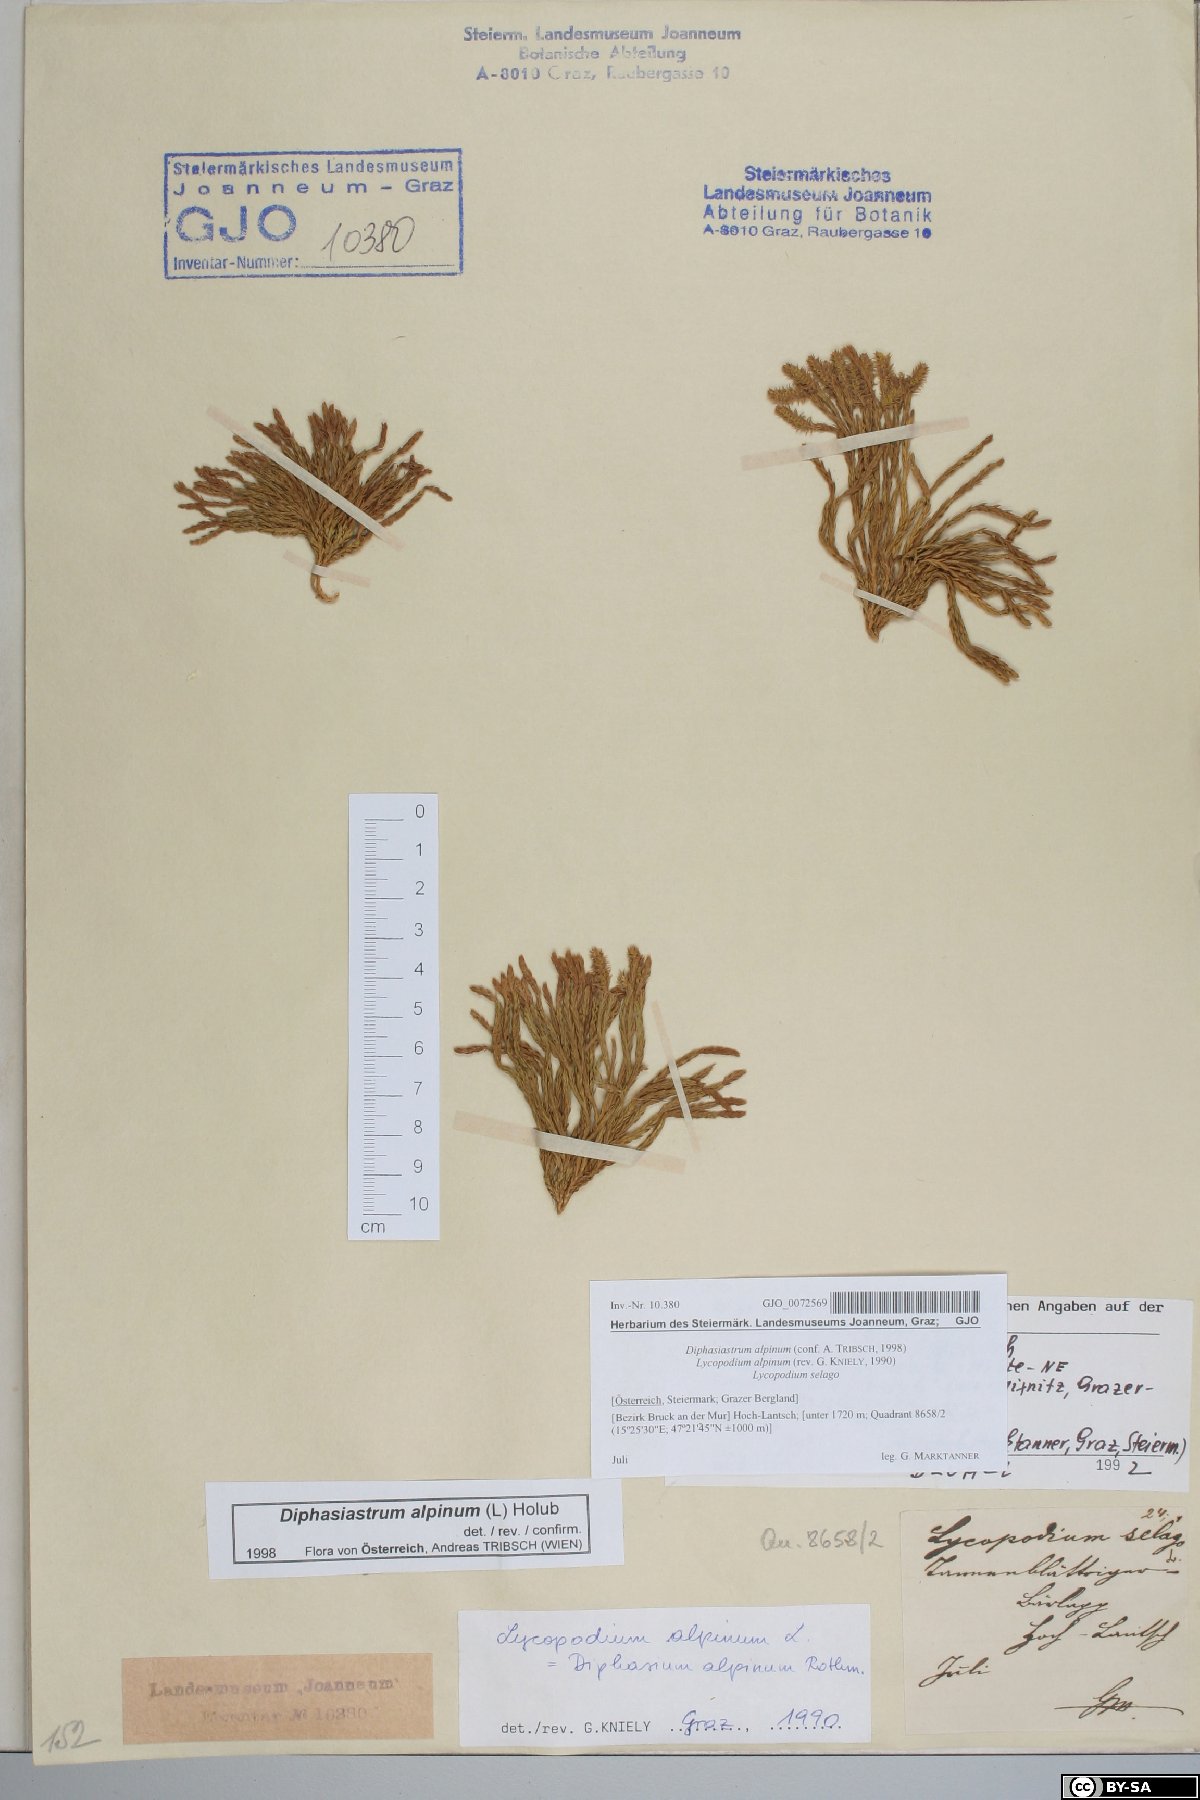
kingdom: Plantae
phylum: Tracheophyta
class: Lycopodiopsida
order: Lycopodiales
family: Lycopodiaceae
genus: Diphasiastrum
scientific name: Diphasiastrum alpinum
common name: Alpine clubmoss
